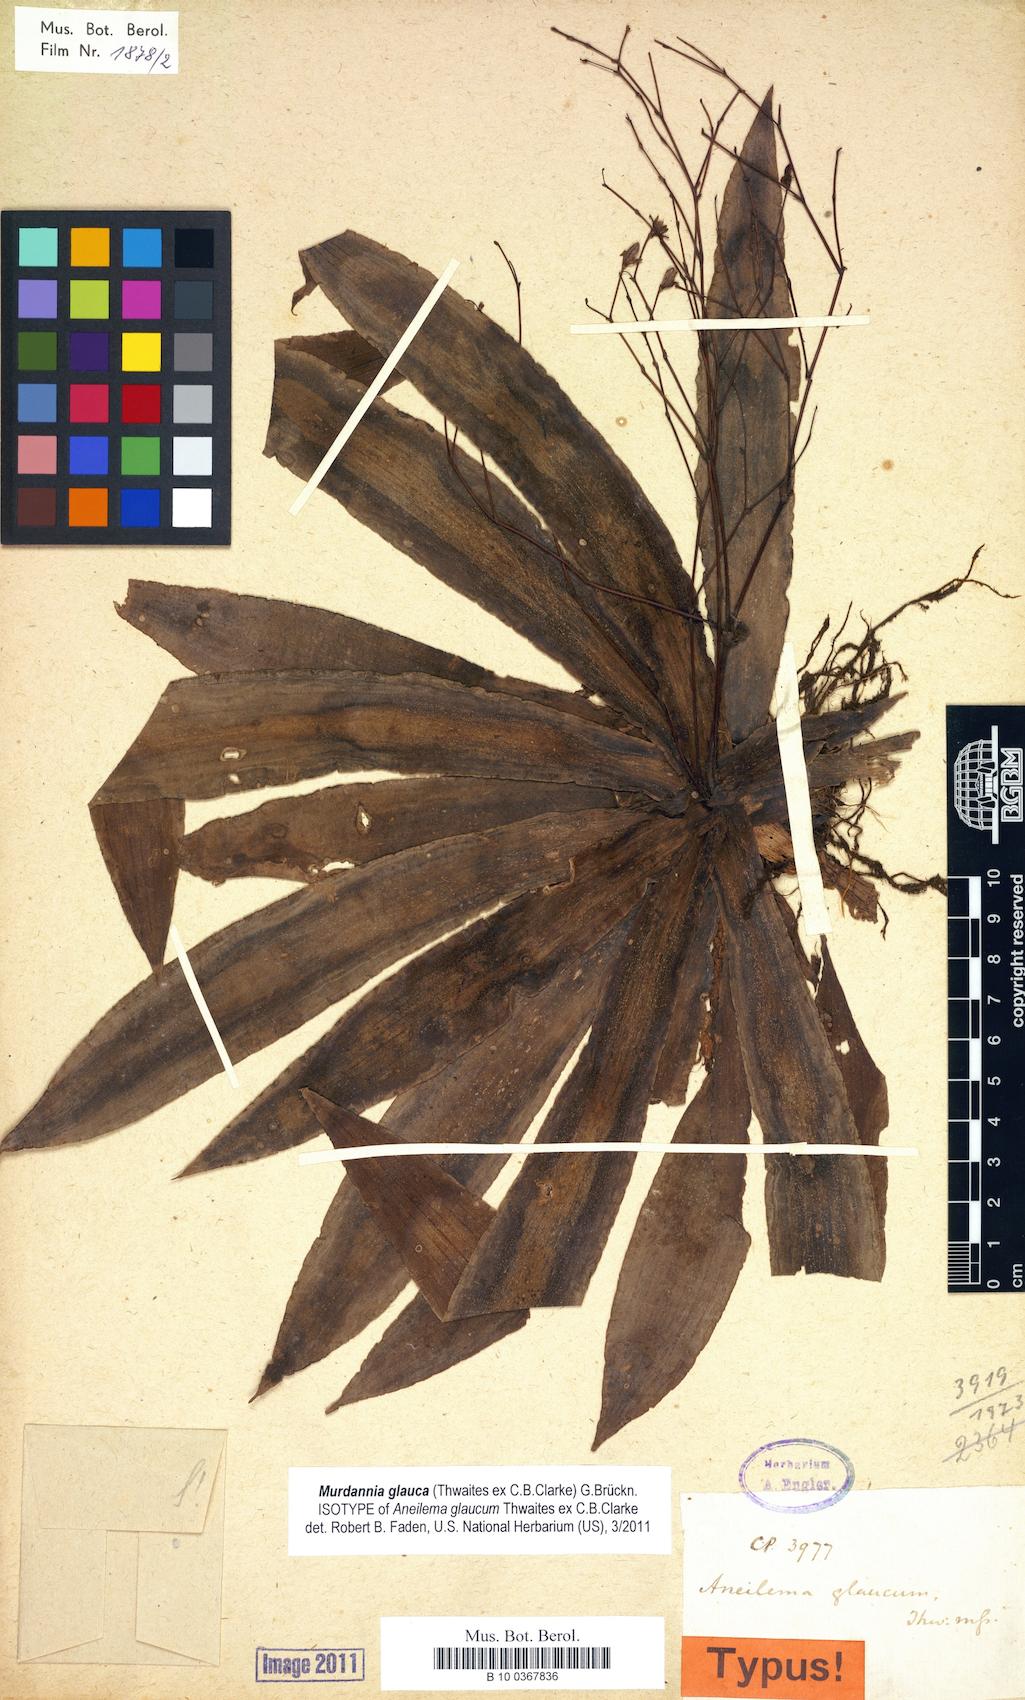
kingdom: Plantae
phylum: Tracheophyta
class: Liliopsida
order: Commelinales
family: Commelinaceae
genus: Murdannia
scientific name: Murdannia glauca
